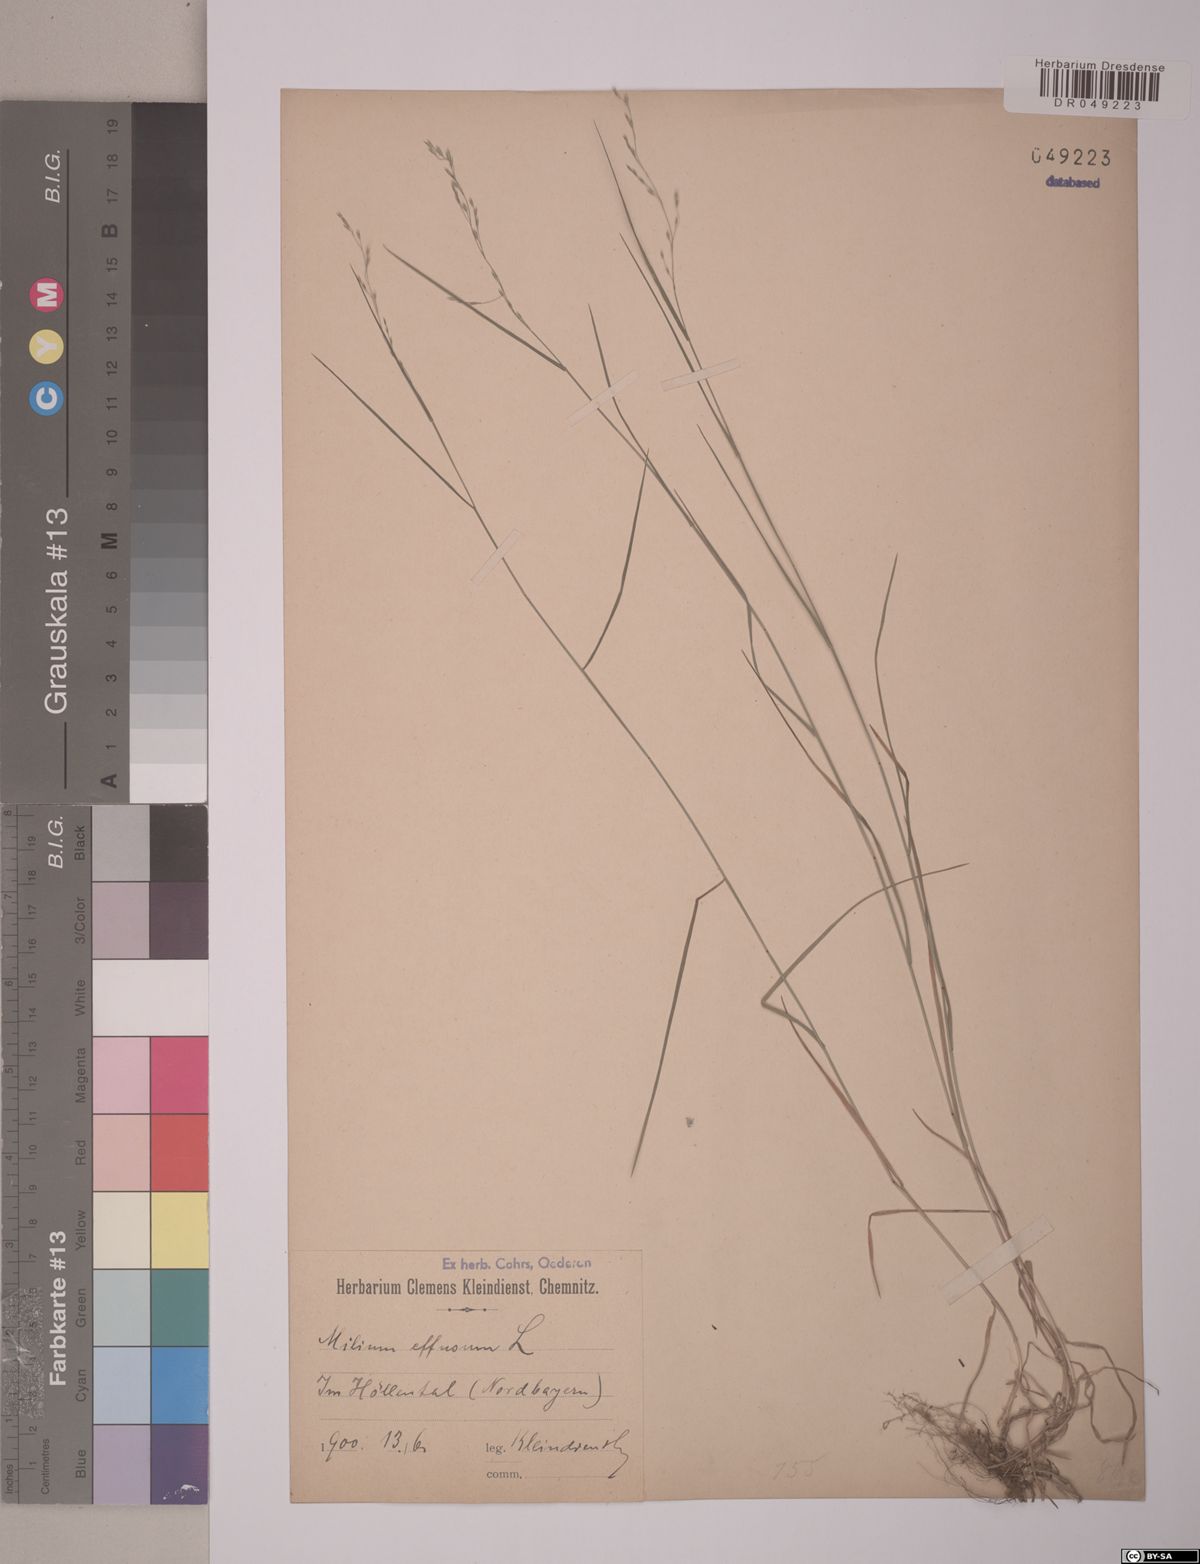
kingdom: Plantae
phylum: Tracheophyta
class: Liliopsida
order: Poales
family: Poaceae
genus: Milium
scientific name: Milium effusum
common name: Wood millet
